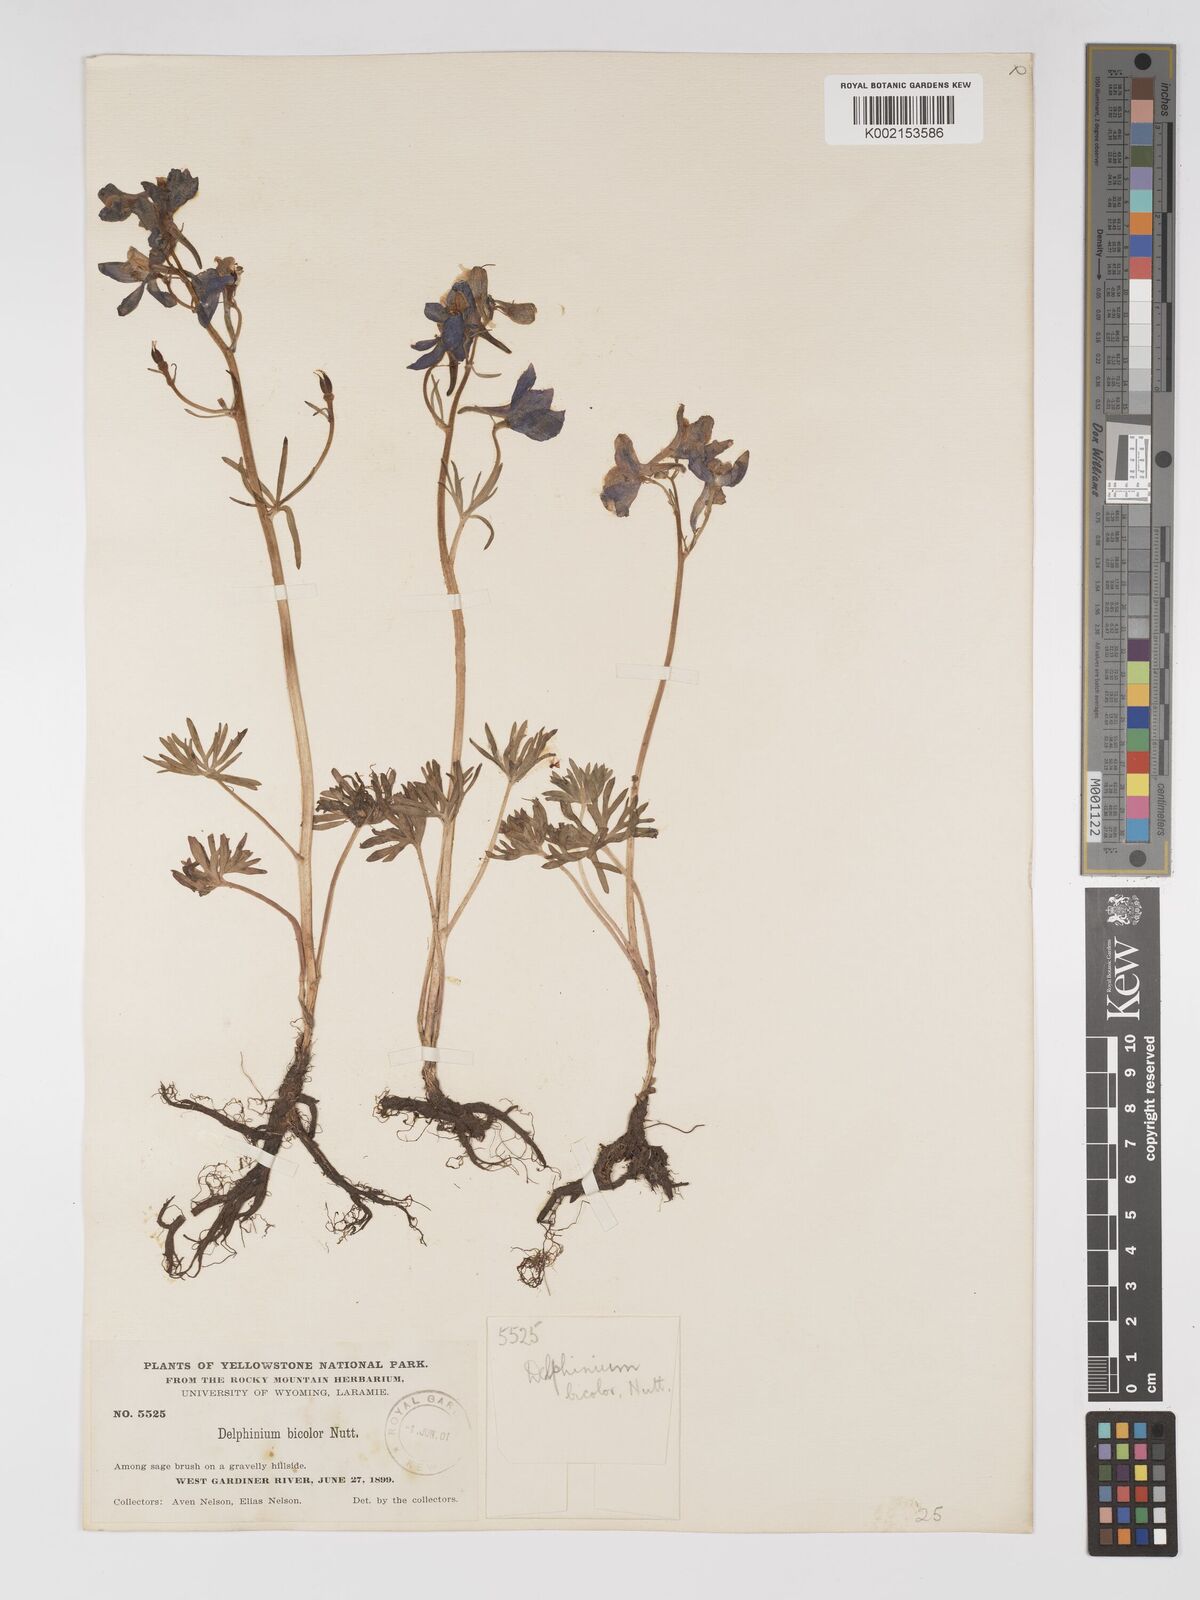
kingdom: Plantae
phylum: Tracheophyta
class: Magnoliopsida
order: Ranunculales
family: Ranunculaceae
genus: Delphinium
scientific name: Delphinium bicolor
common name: Low larkspur
